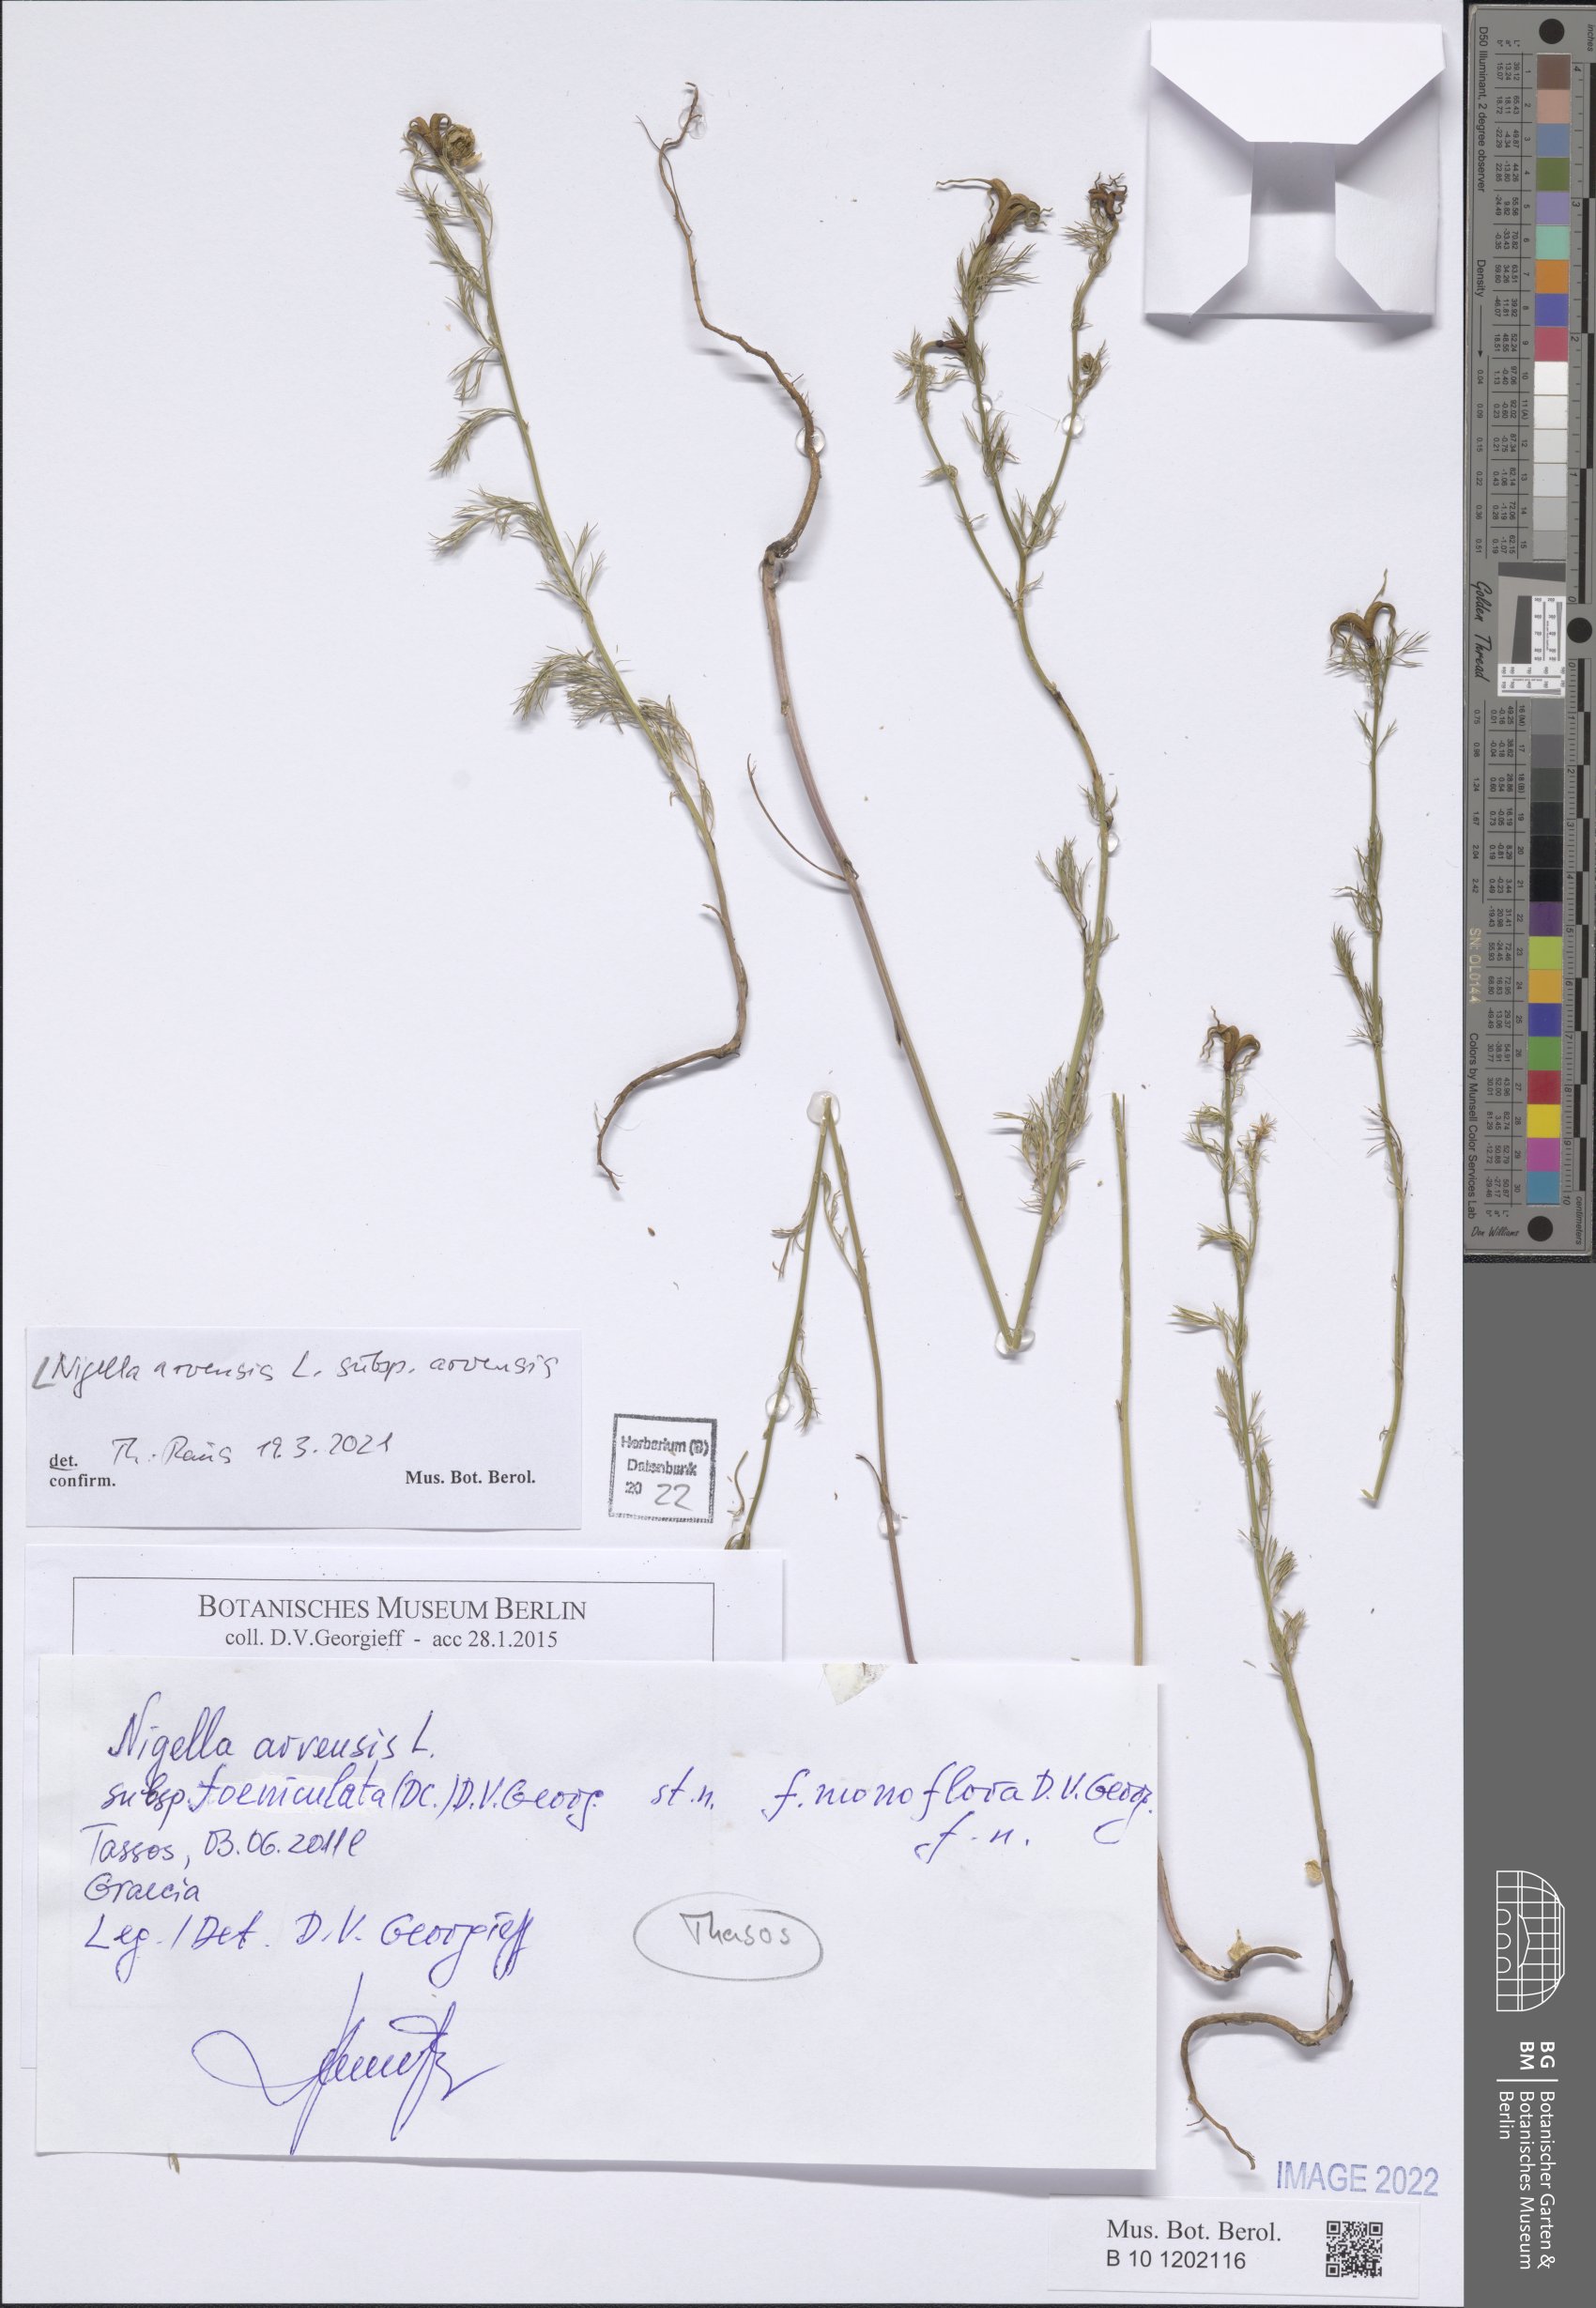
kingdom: Plantae
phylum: Tracheophyta
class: Magnoliopsida
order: Ranunculales
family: Ranunculaceae
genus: Nigella
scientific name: Nigella arvensis
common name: Wild fennel-flower
